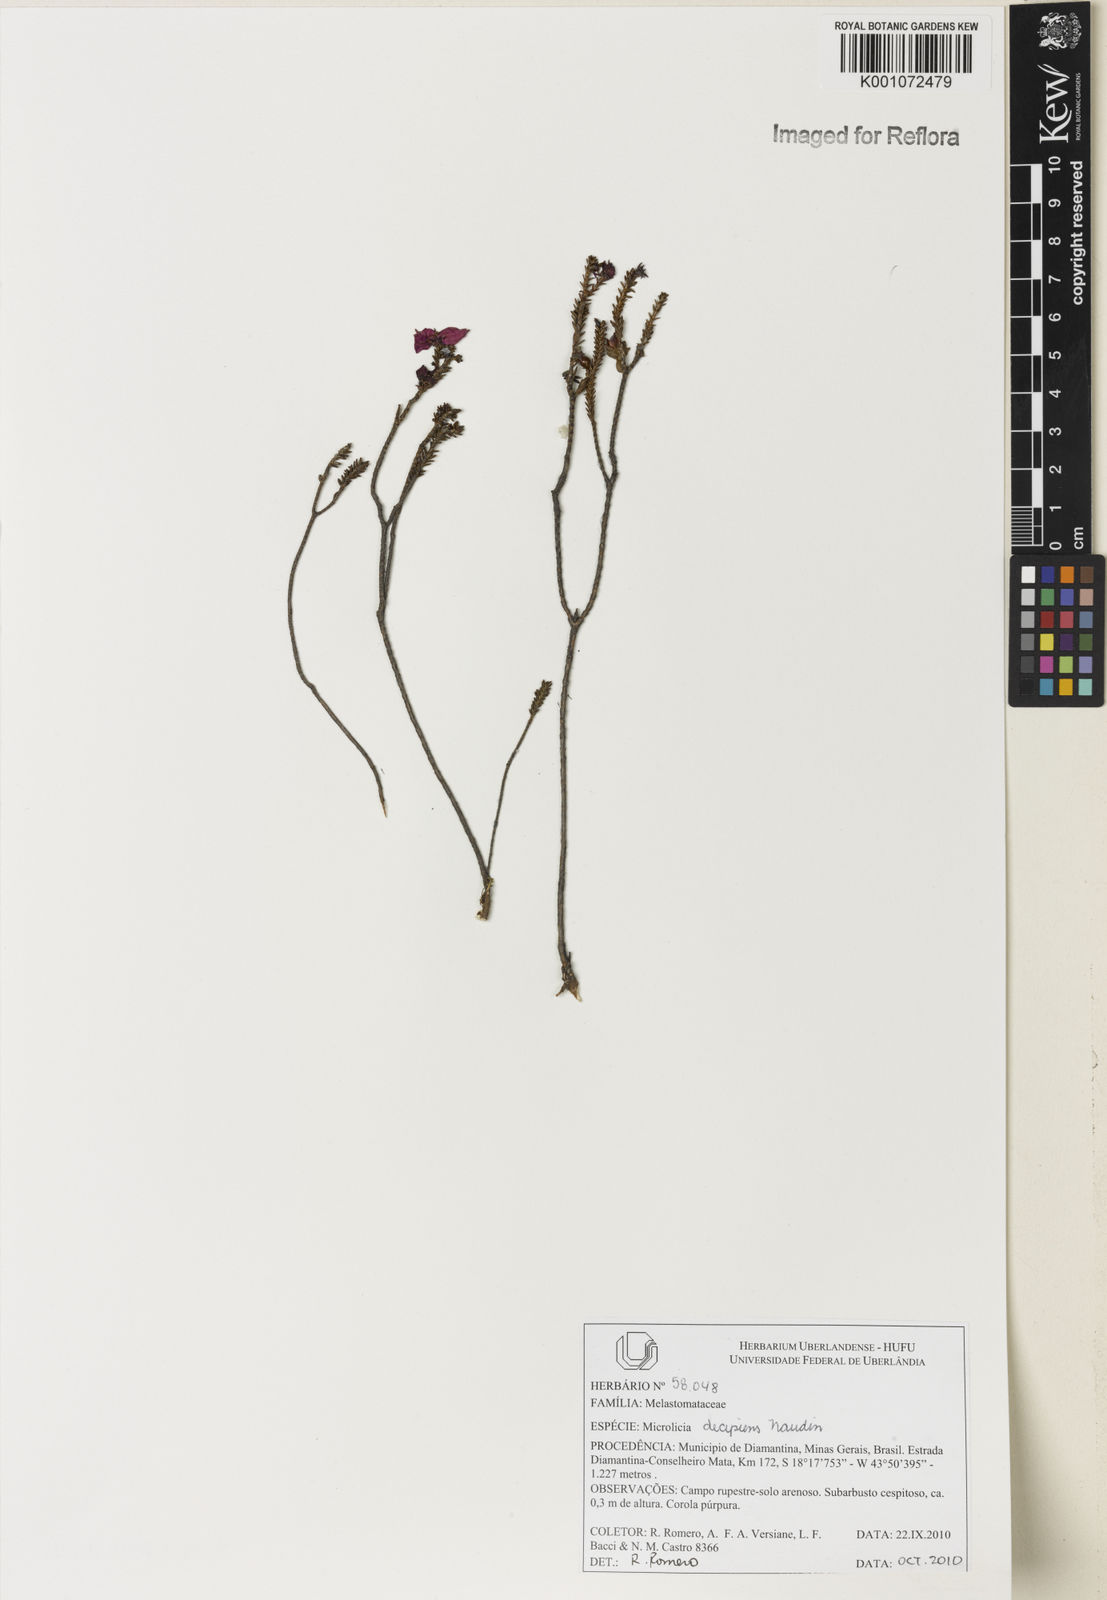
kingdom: Plantae
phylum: Tracheophyta
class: Magnoliopsida
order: Myrtales
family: Melastomataceae
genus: Microlicia
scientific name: Microlicia decipiens
